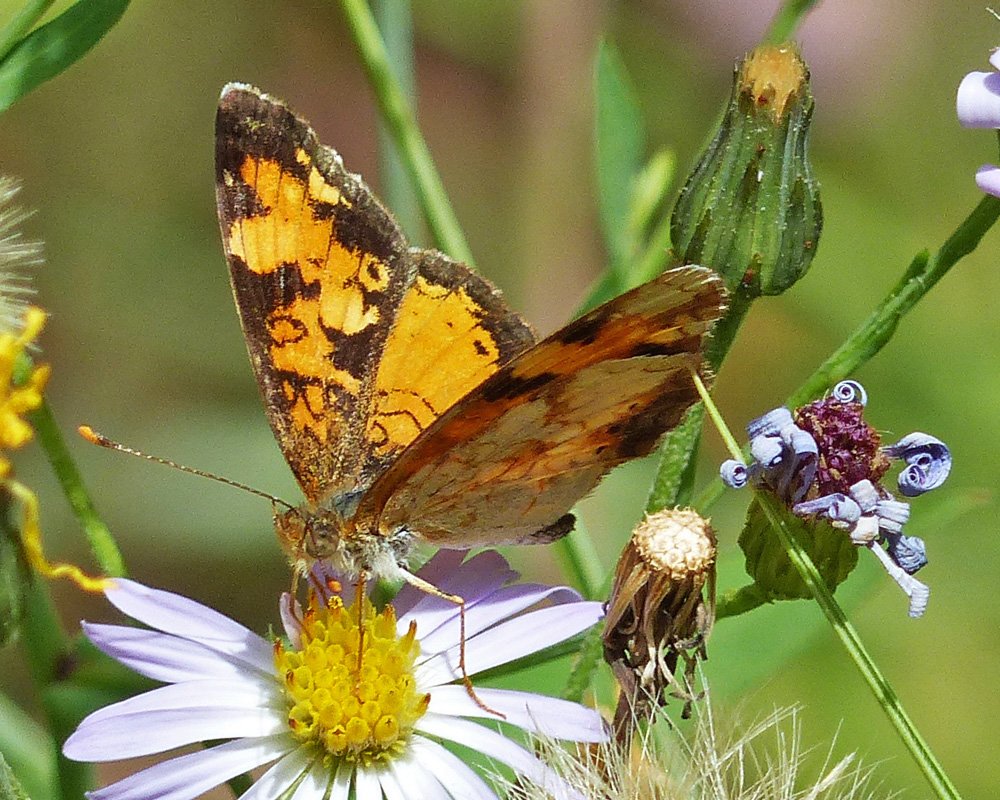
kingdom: Animalia
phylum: Arthropoda
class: Insecta
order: Lepidoptera
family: Nymphalidae
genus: Phyciodes
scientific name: Phyciodes tharos
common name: Northern Crescent
